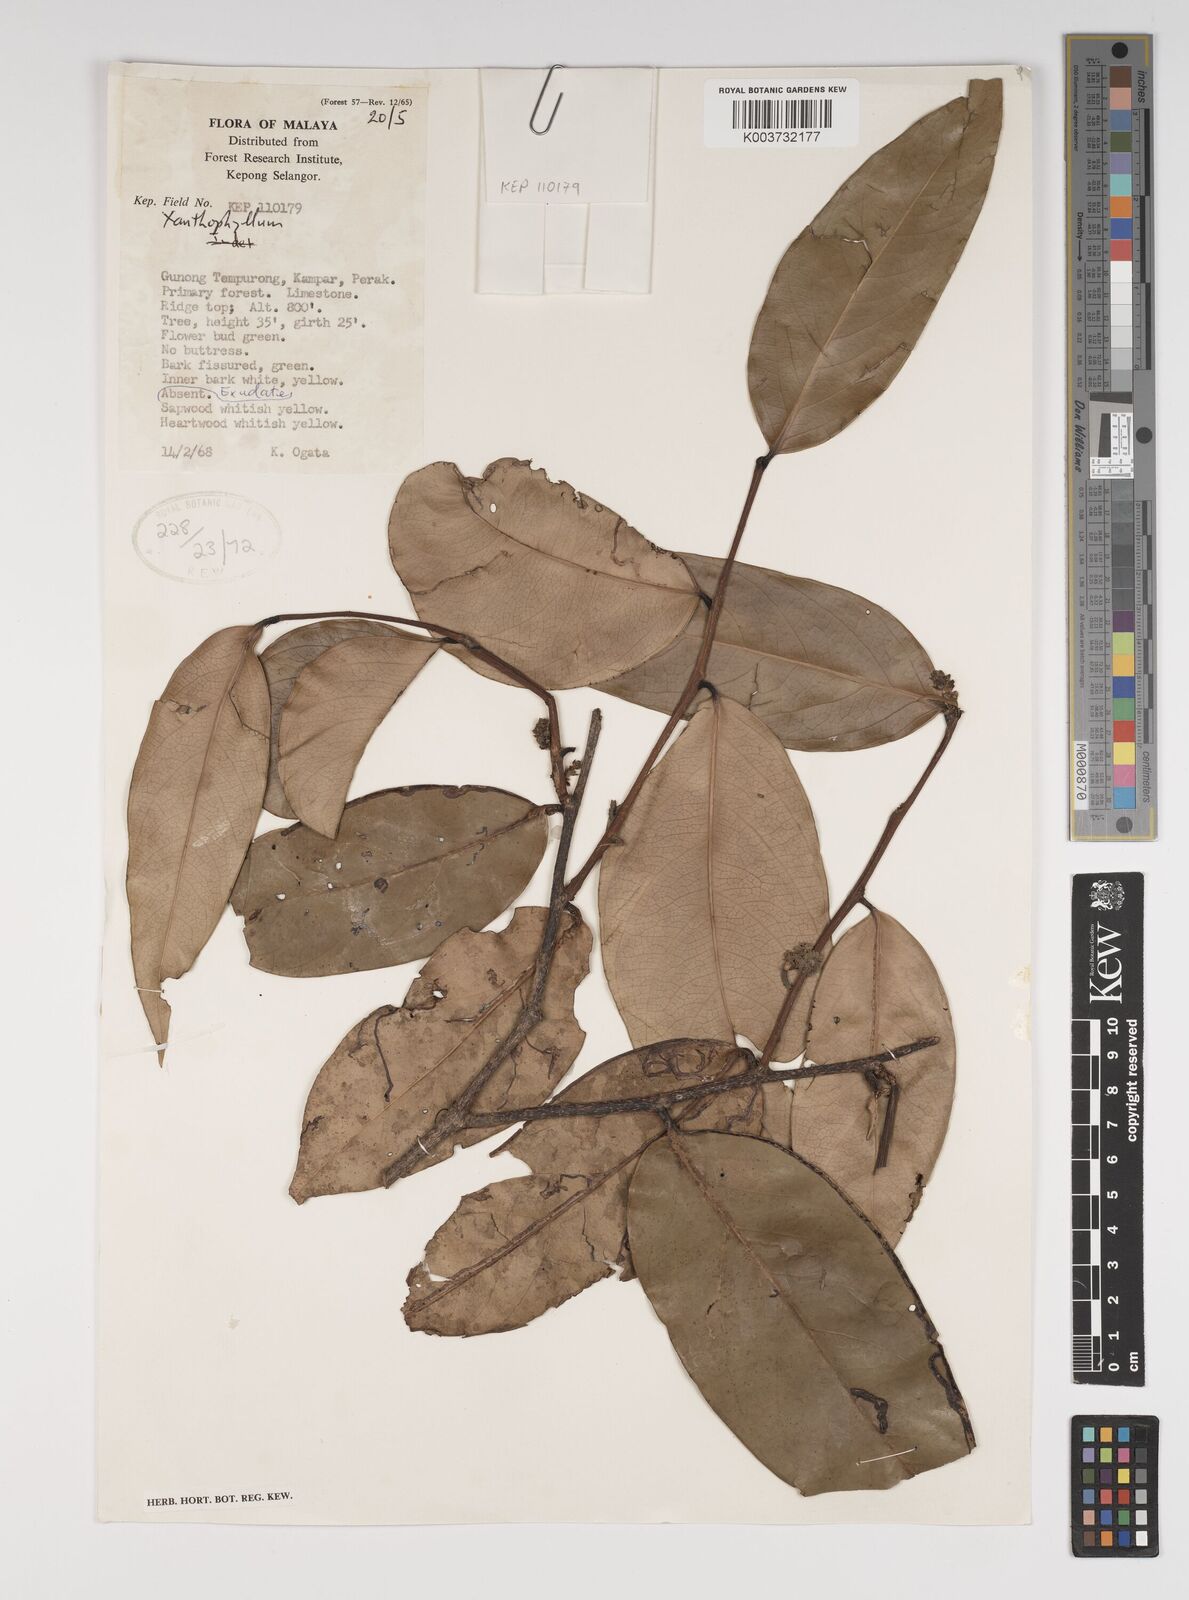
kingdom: Plantae
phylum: Tracheophyta
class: Magnoliopsida
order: Fabales
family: Polygalaceae
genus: Xanthophyllum
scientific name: Xanthophyllum
